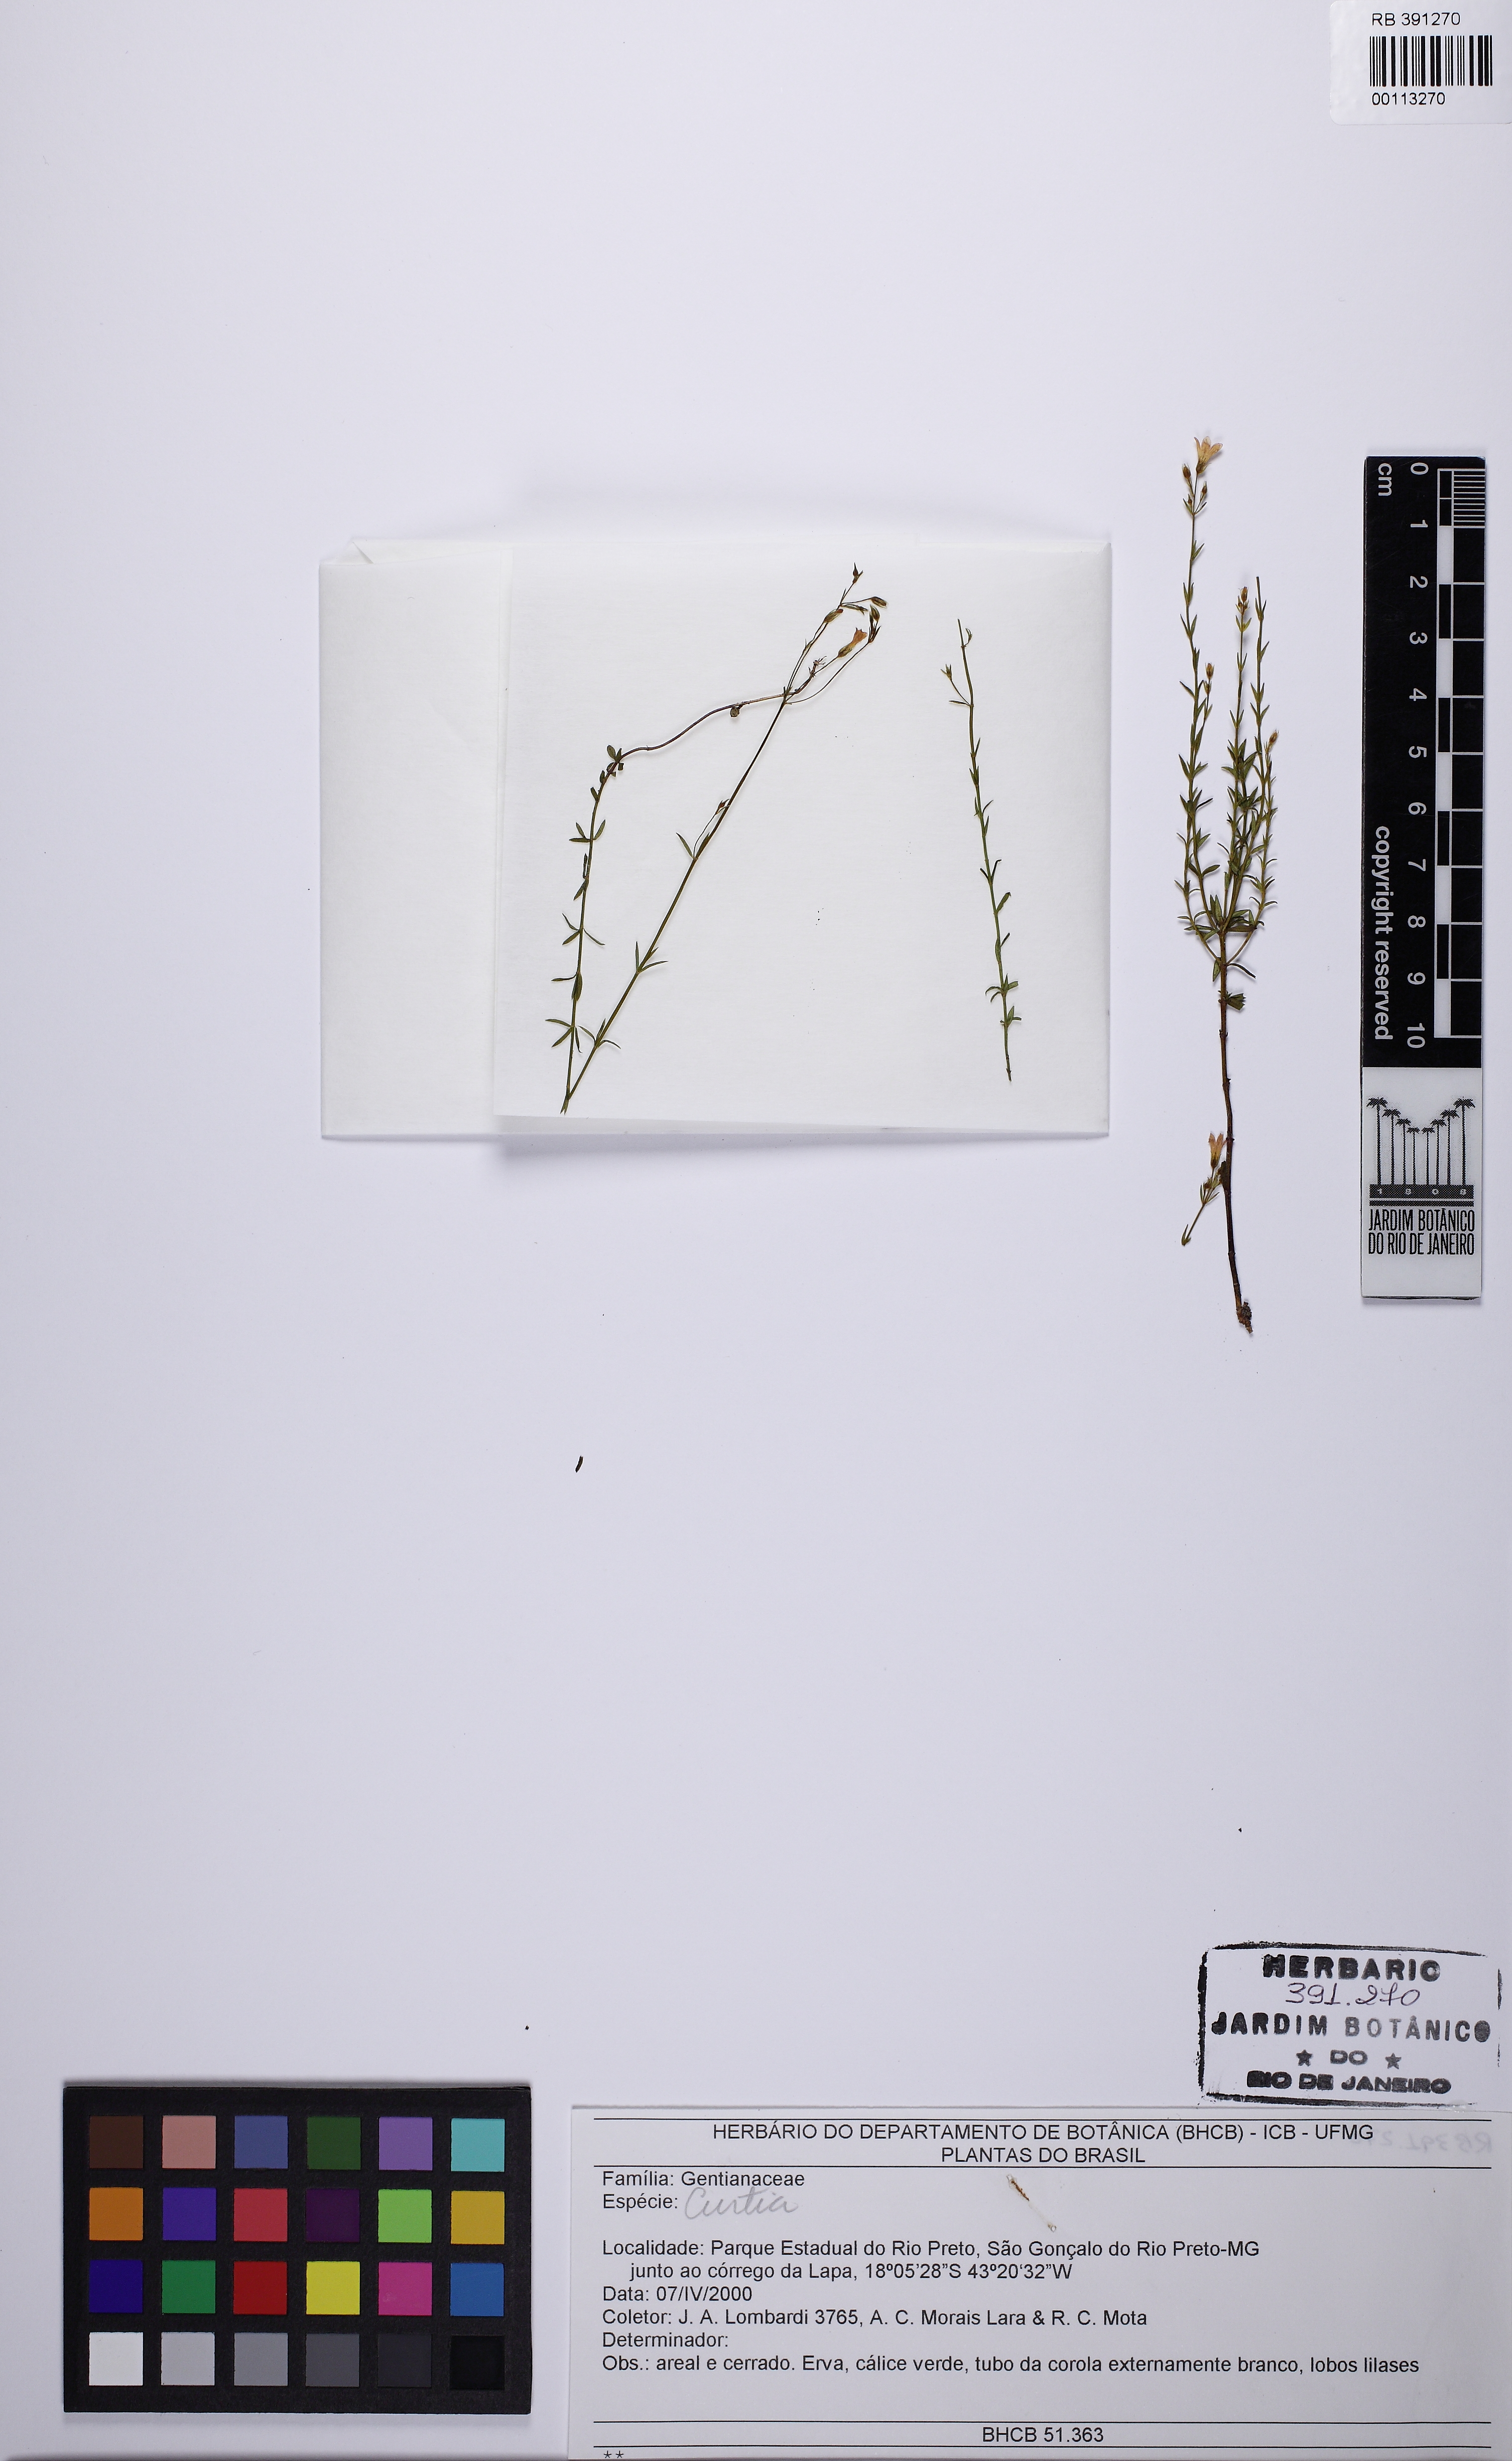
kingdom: Plantae
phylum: Tracheophyta
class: Magnoliopsida
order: Gentianales
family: Gentianaceae
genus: Curtia
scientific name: Curtia
